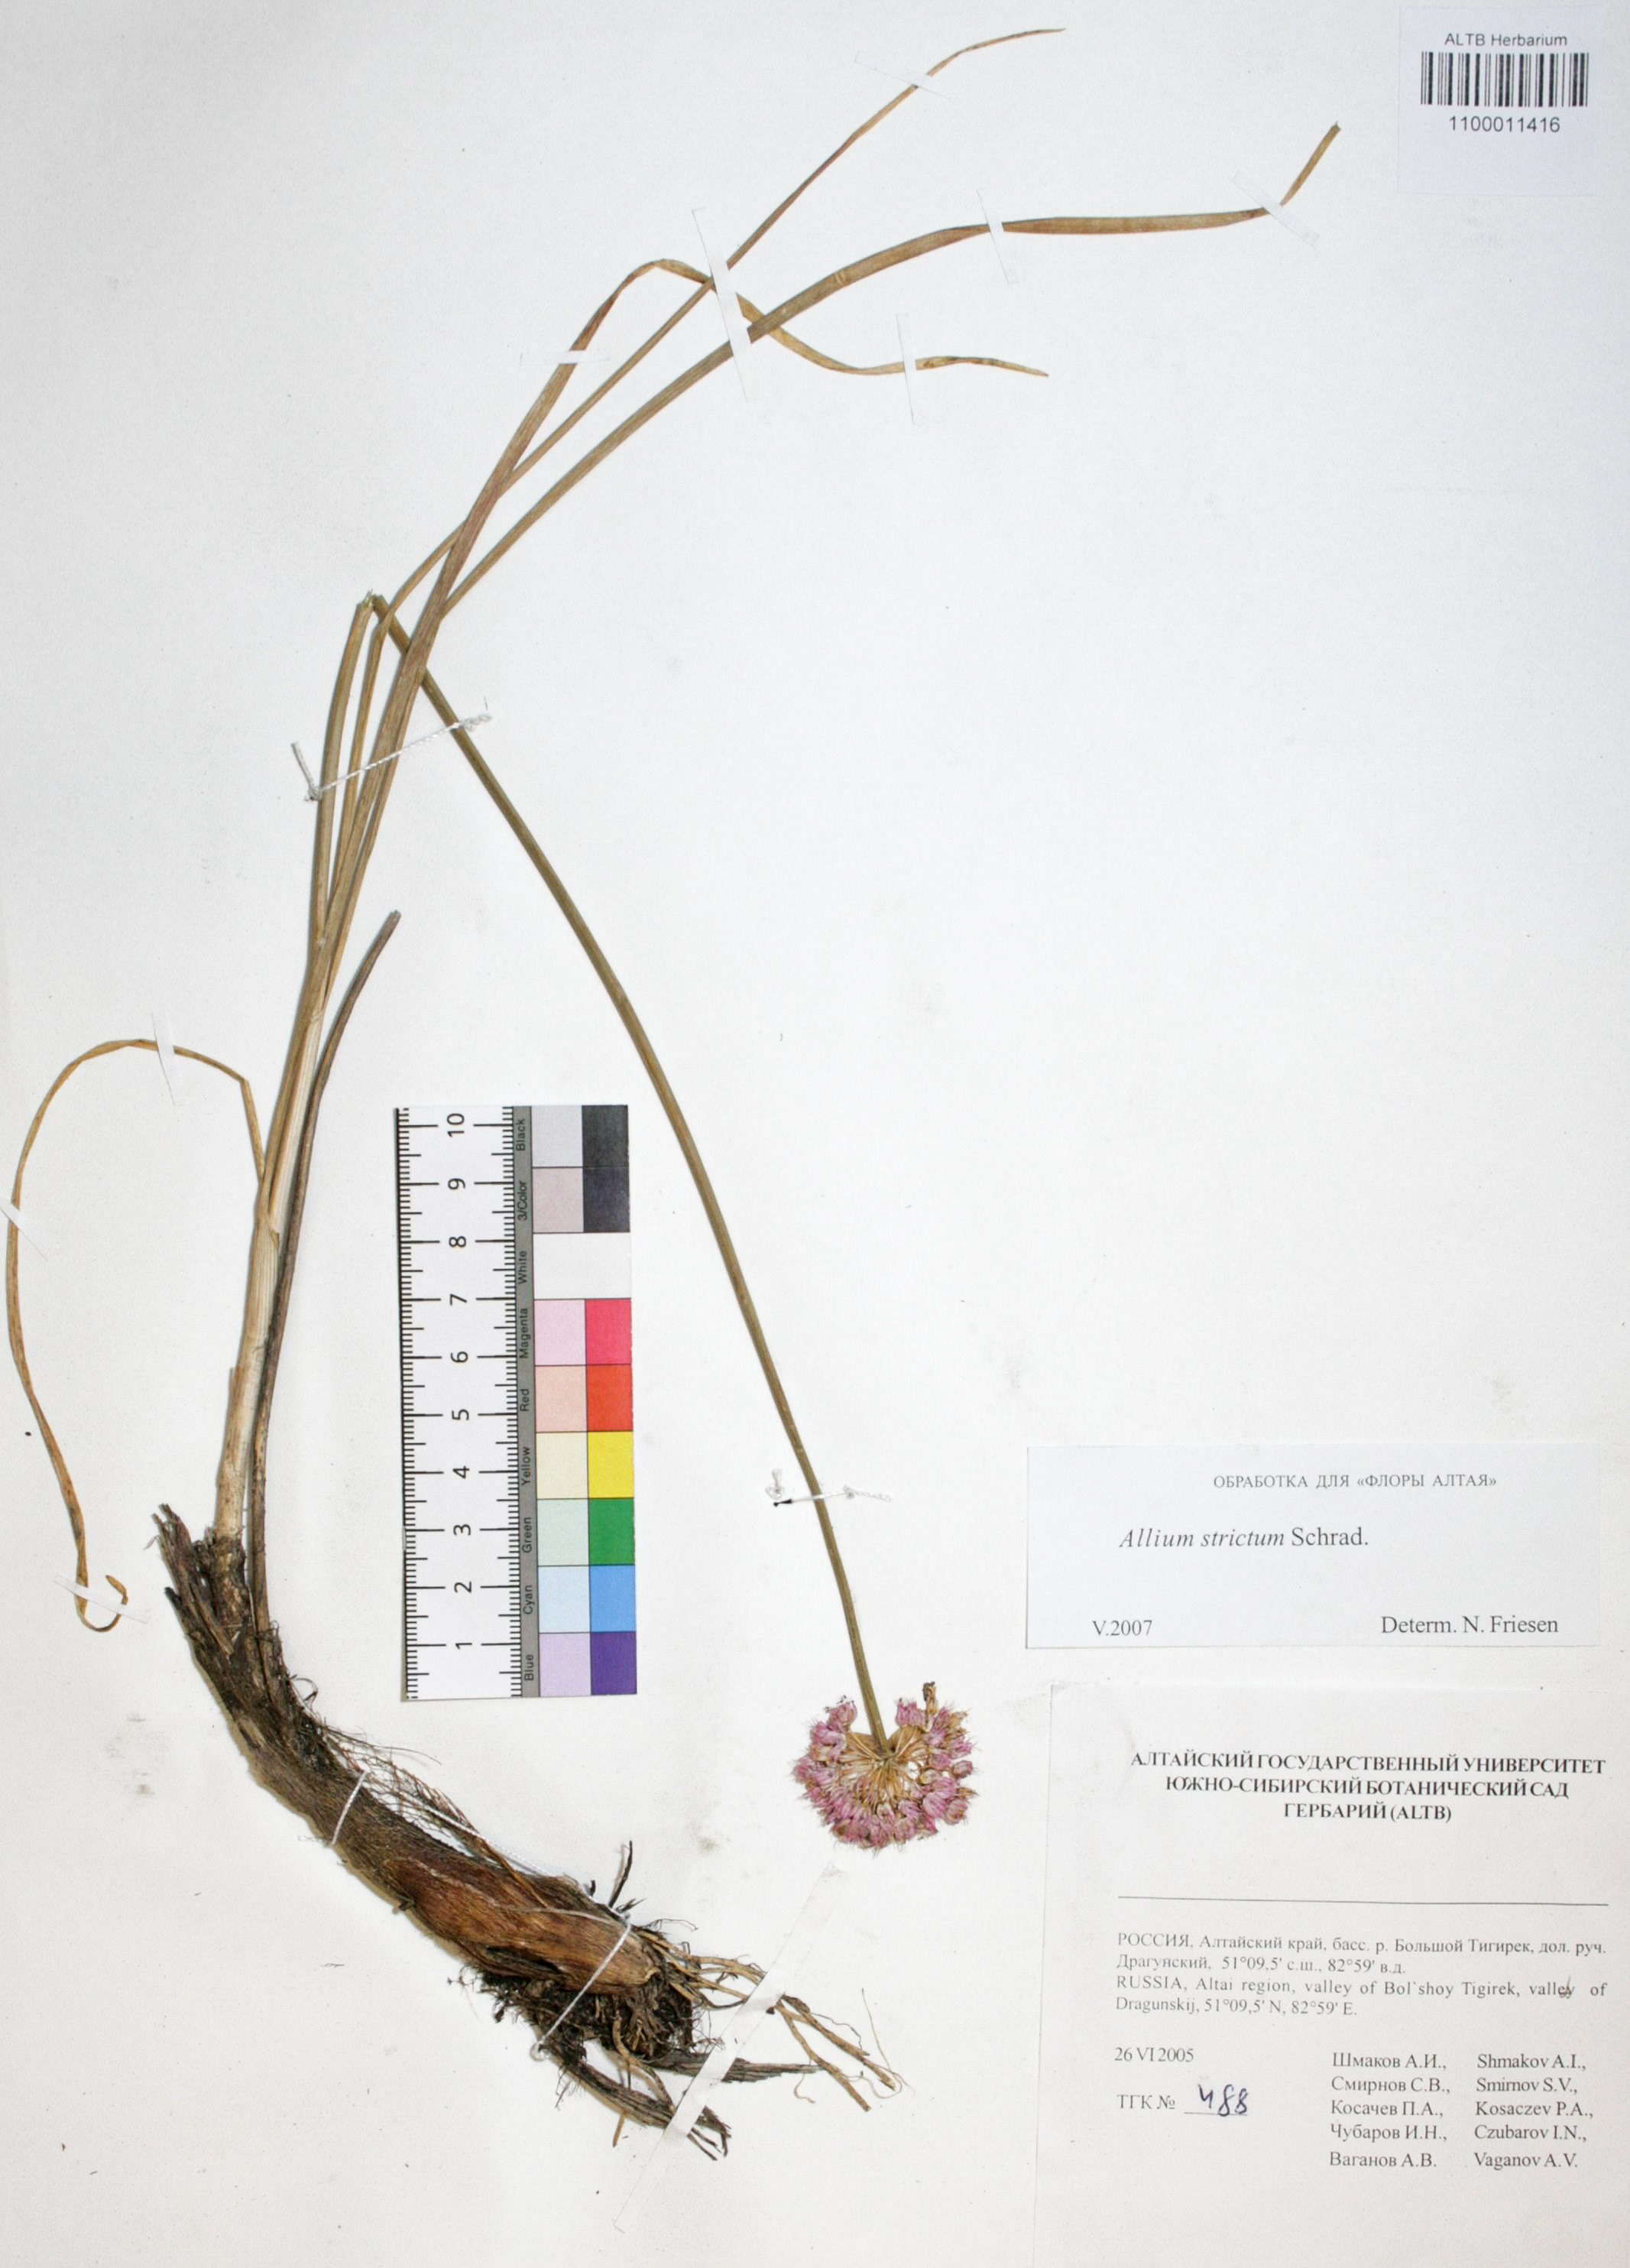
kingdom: Plantae
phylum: Tracheophyta
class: Liliopsida
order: Asparagales
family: Amaryllidaceae
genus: Allium
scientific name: Allium strictum
